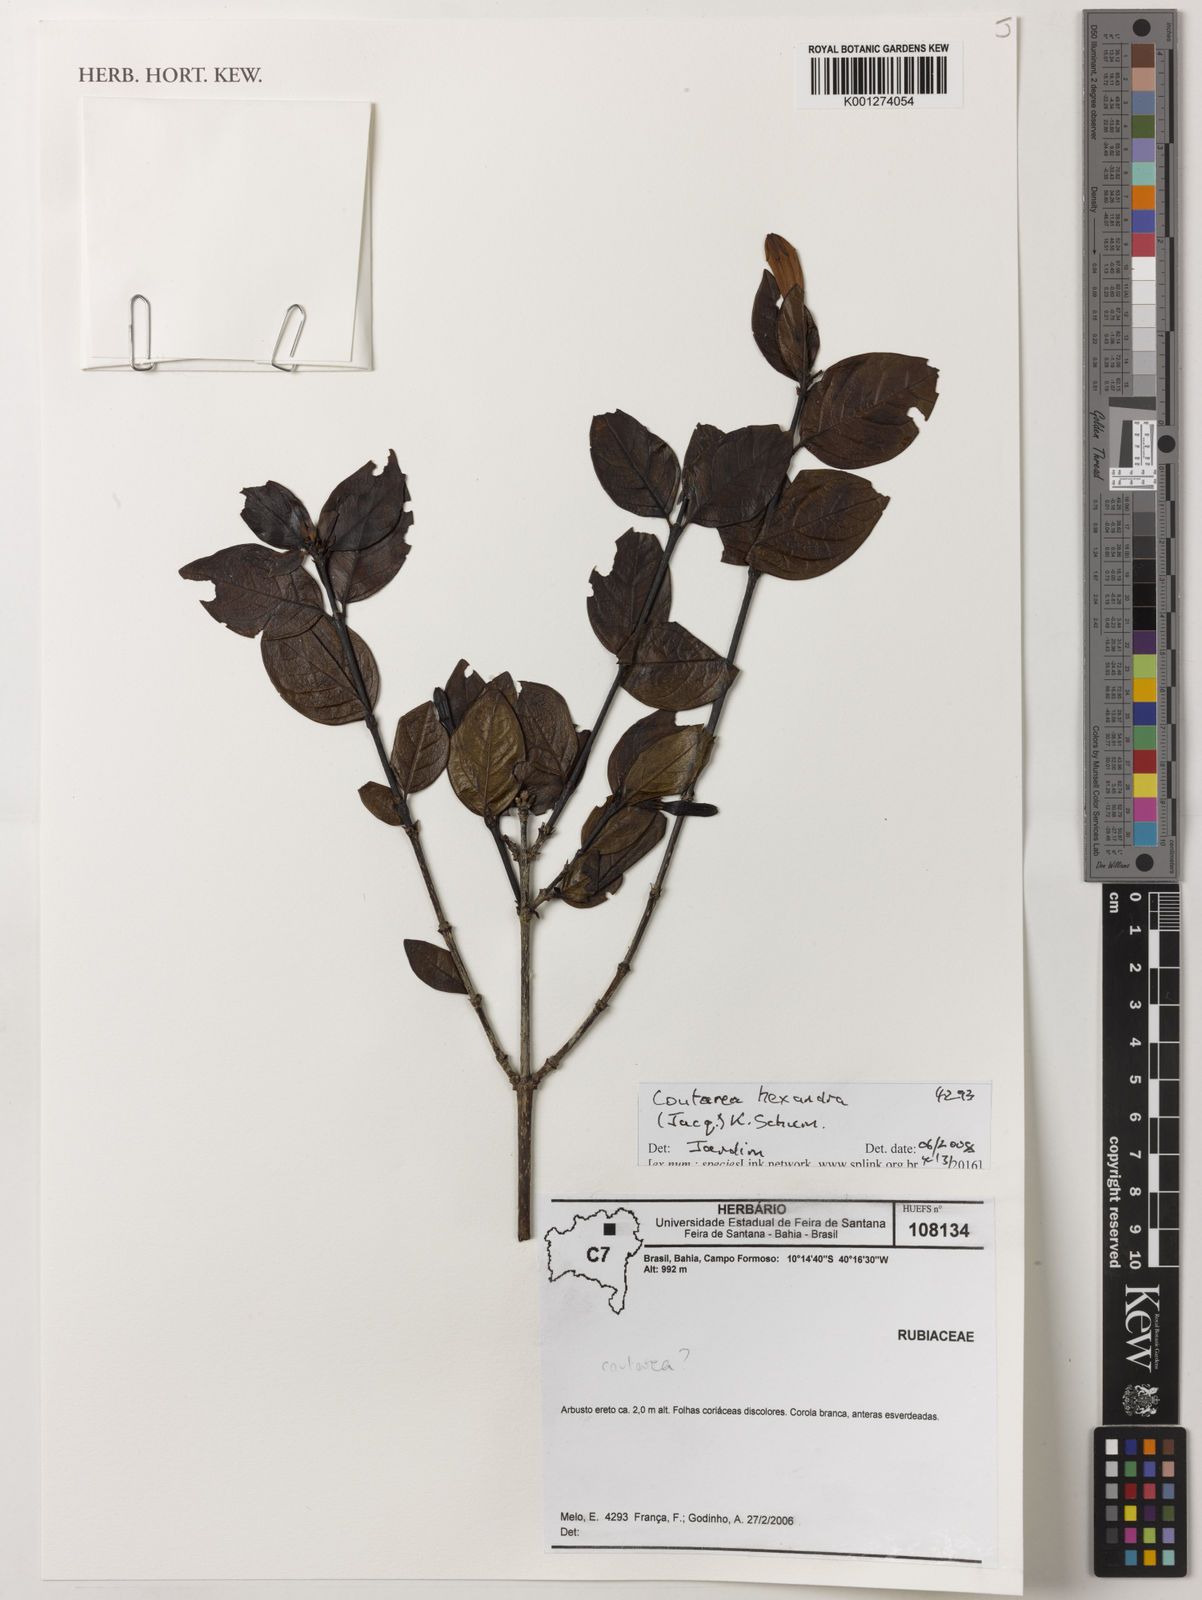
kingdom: Plantae
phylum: Tracheophyta
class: Magnoliopsida
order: Gentianales
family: Rubiaceae
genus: Coutarea
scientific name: Coutarea hexandra
